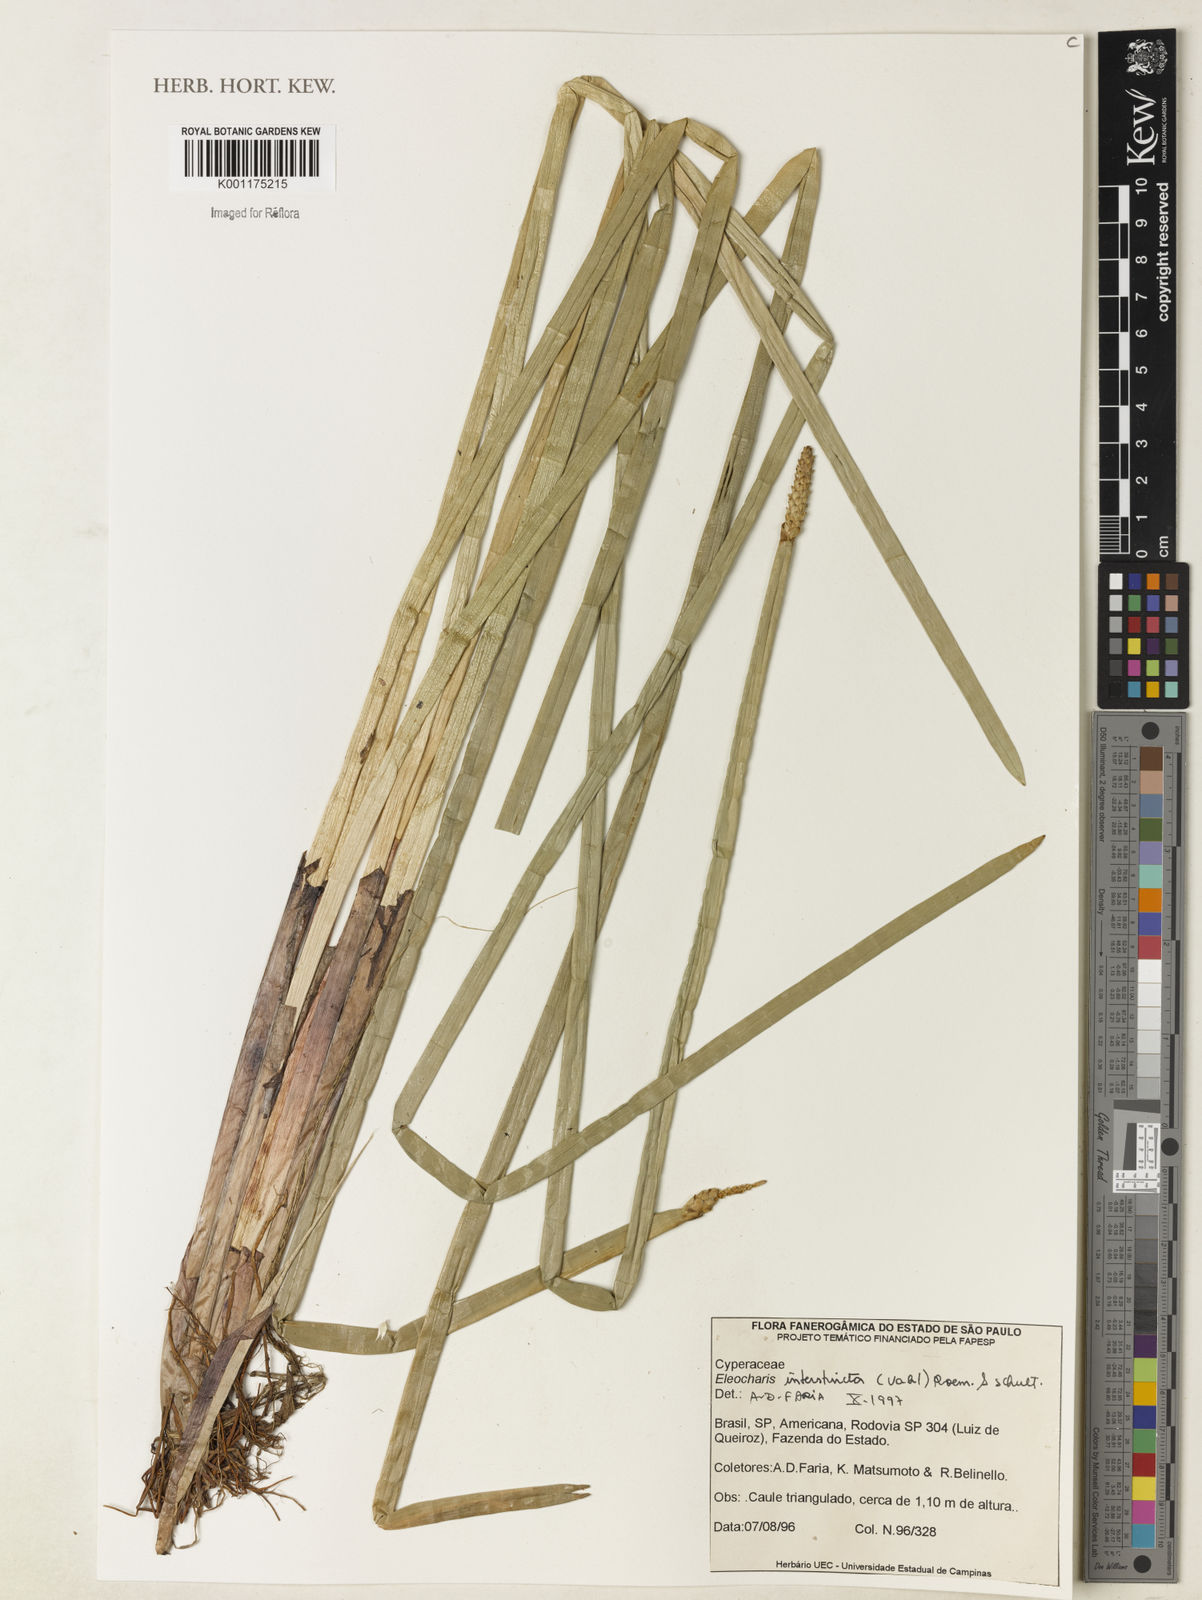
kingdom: Plantae
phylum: Tracheophyta
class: Liliopsida
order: Poales
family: Cyperaceae
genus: Eleocharis
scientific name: Eleocharis interstincta
